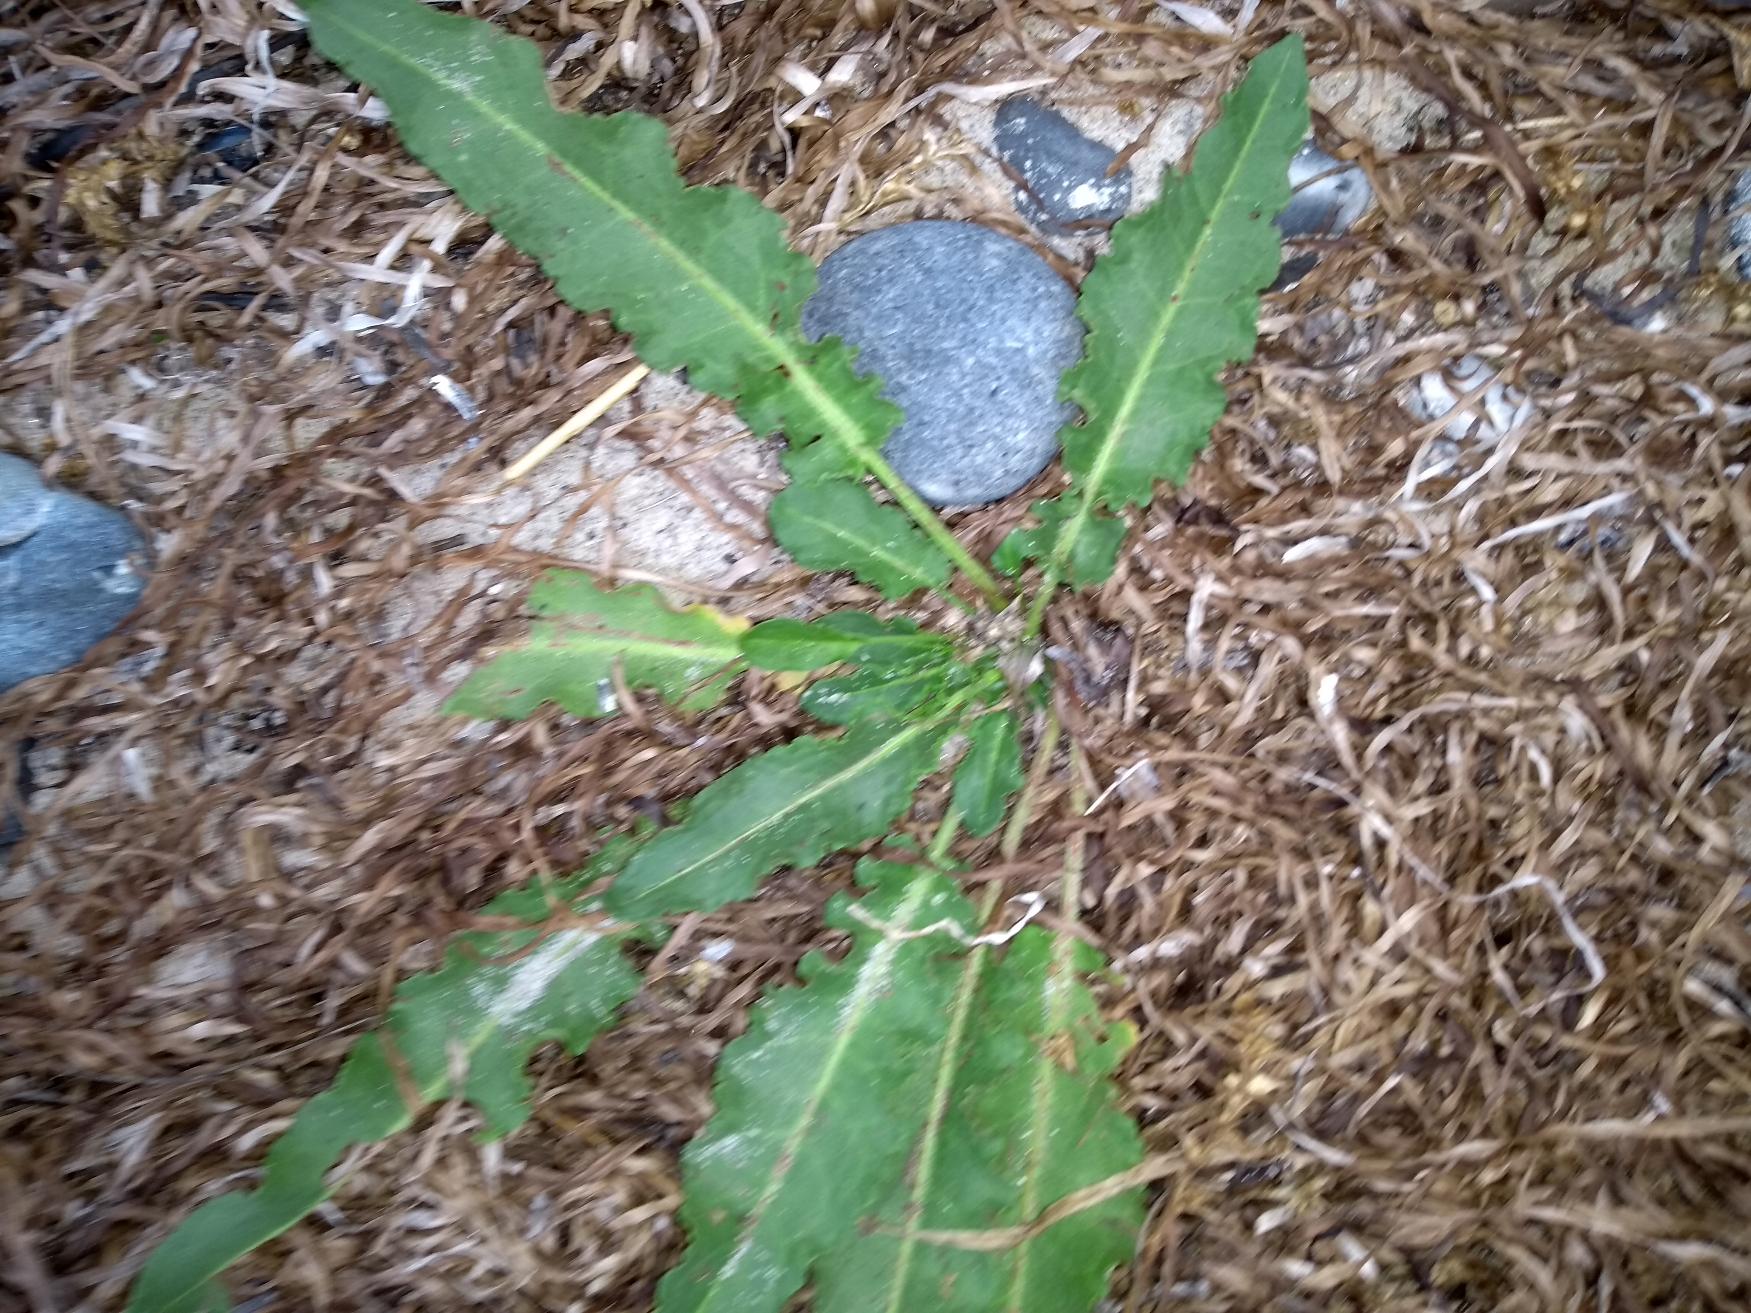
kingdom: Plantae
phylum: Tracheophyta
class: Magnoliopsida
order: Caryophyllales
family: Polygonaceae
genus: Rumex
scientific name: Rumex crispus
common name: Kruset skræppe
